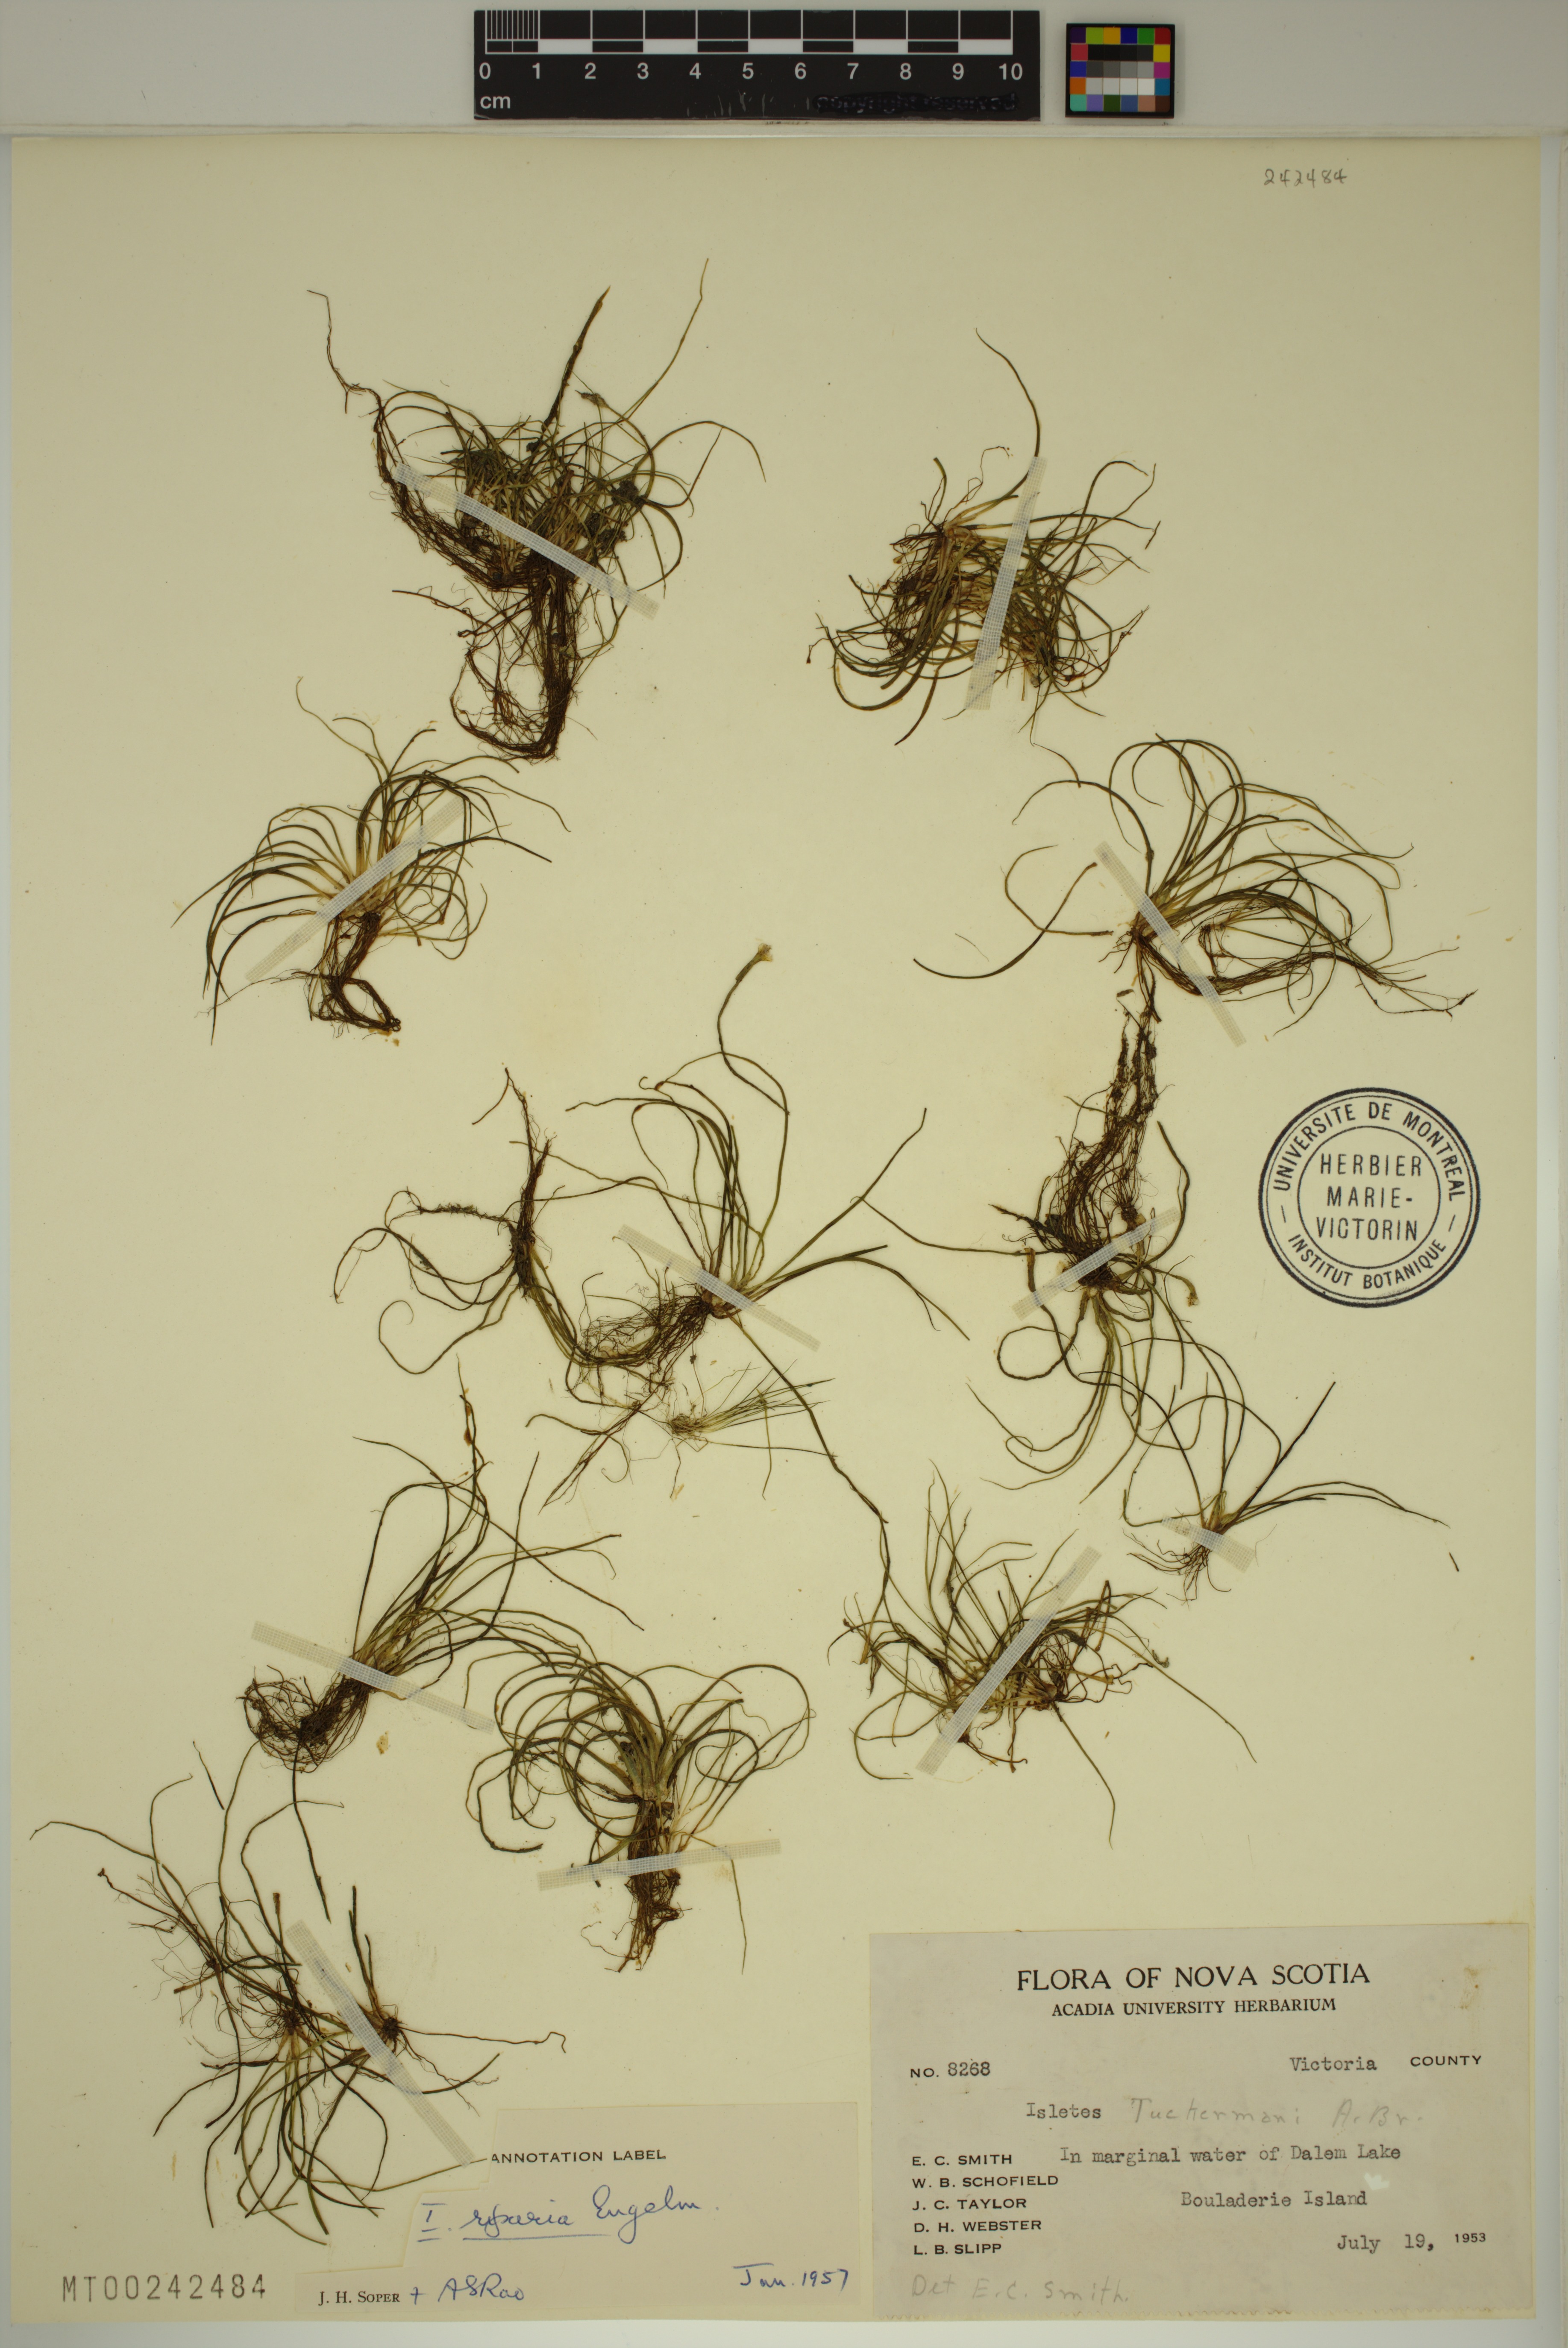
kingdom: Plantae
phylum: Tracheophyta
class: Lycopodiopsida
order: Isoetales
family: Isoetaceae
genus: Isoetes
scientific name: Isoetes tuckermanii
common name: Tuckerman's quillwort
